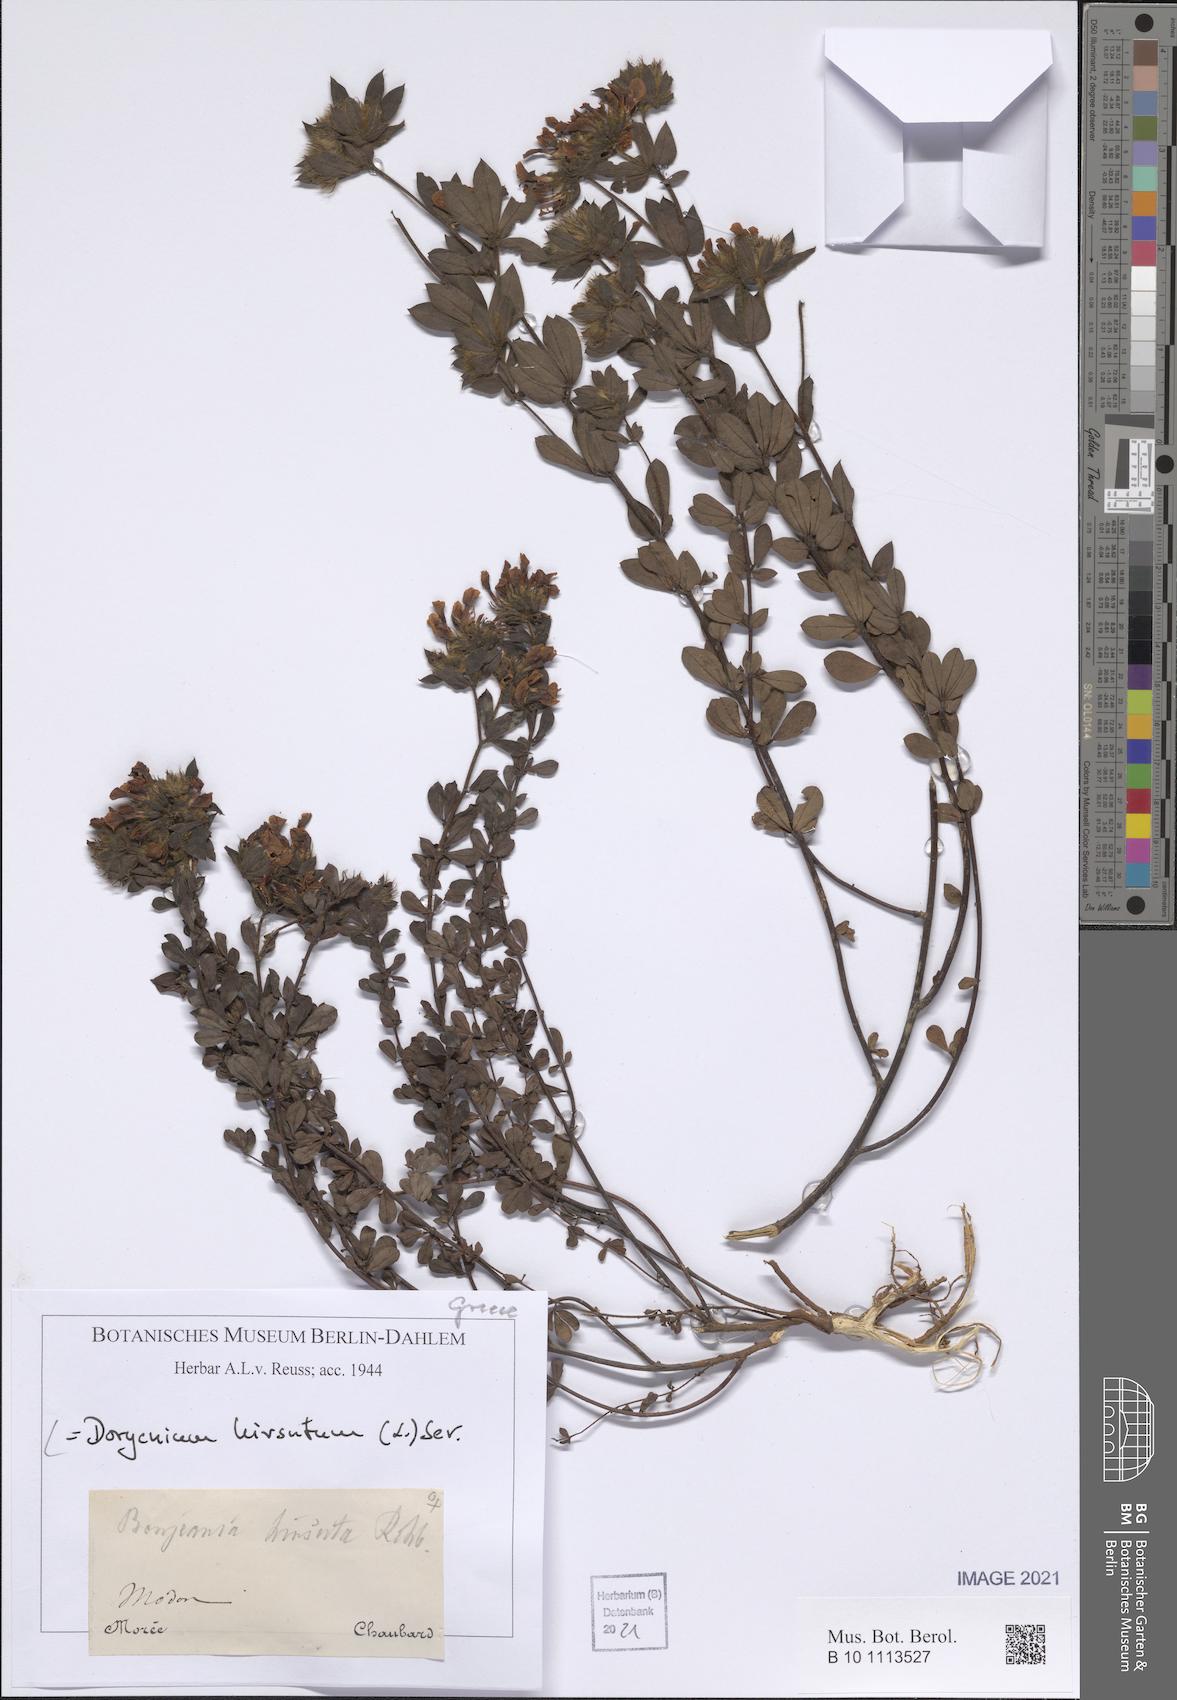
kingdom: Plantae
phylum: Tracheophyta
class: Magnoliopsida
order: Fabales
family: Fabaceae
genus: Lotus
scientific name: Lotus hirsutus
